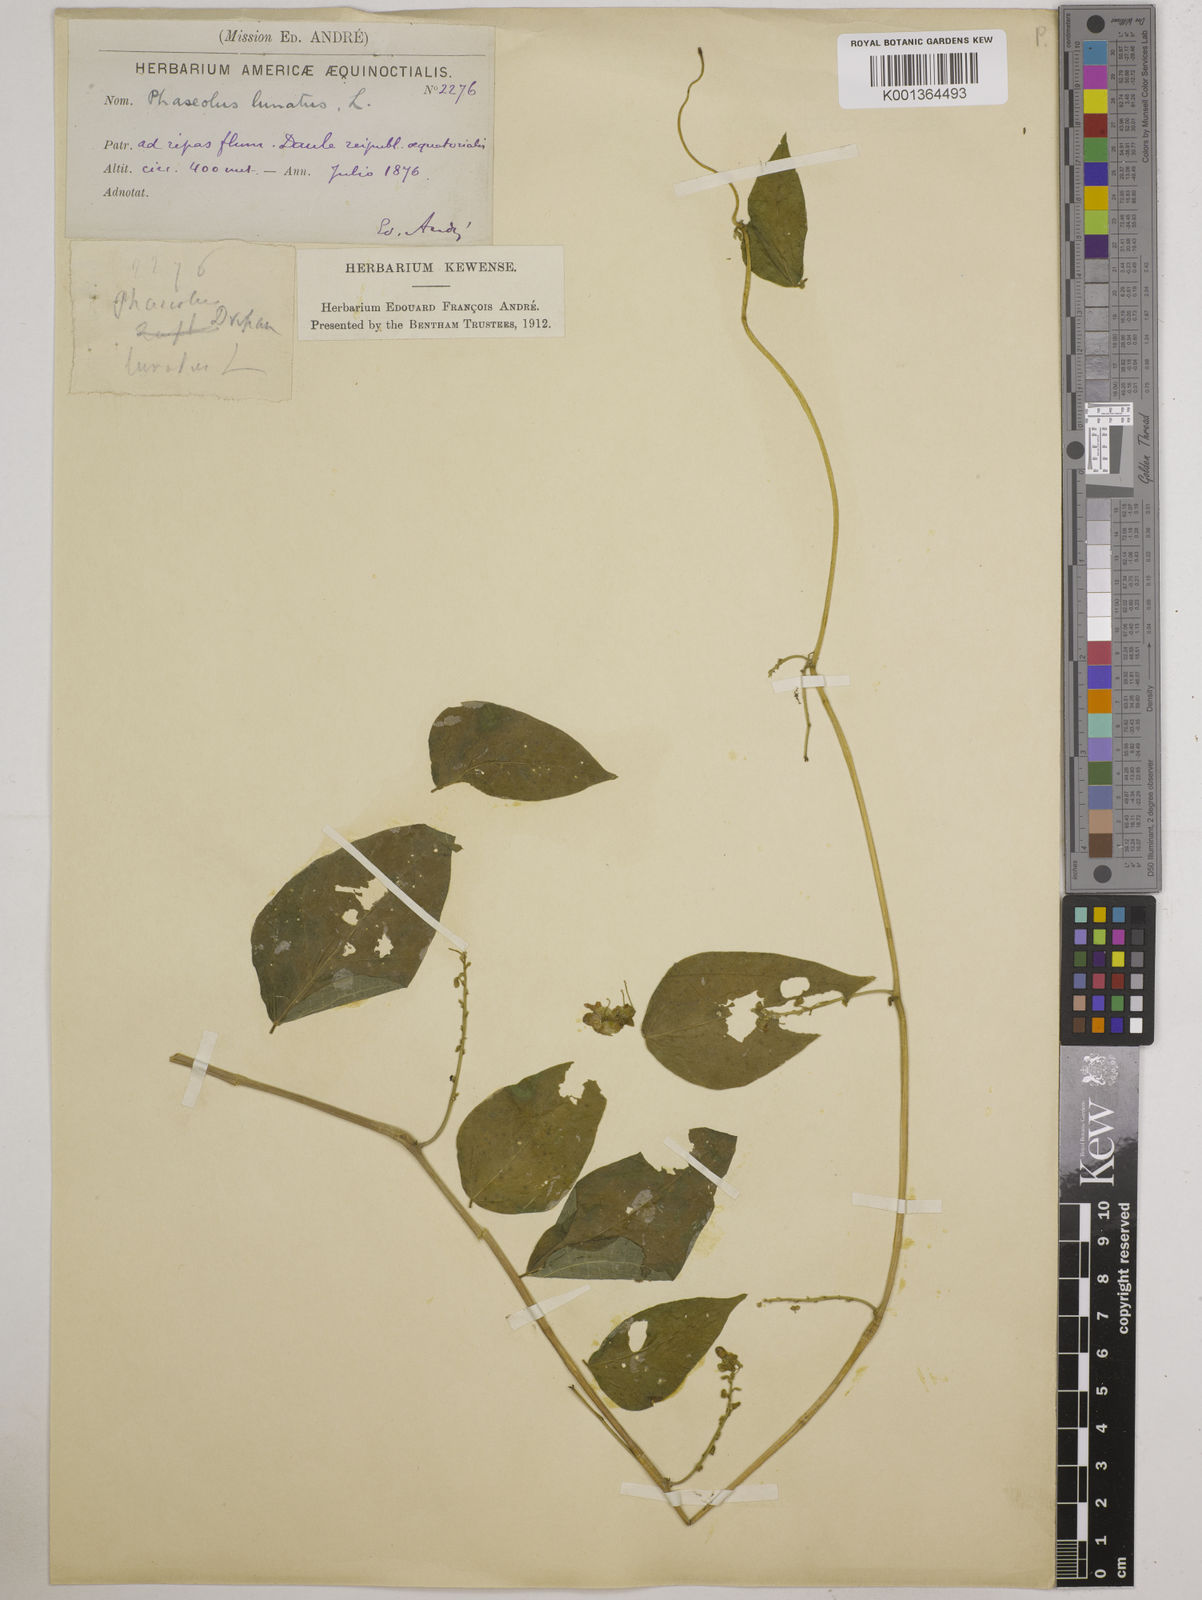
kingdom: Plantae
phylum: Tracheophyta
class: Magnoliopsida
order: Fabales
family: Fabaceae
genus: Phaseolus
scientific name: Phaseolus lunatus
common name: Sieva bean
